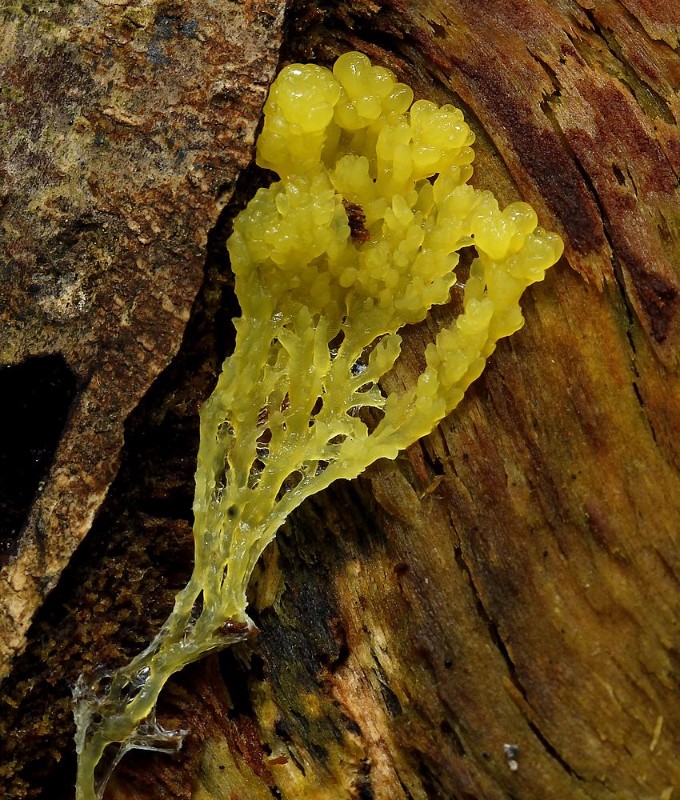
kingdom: Protozoa
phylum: Mycetozoa
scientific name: Mycetozoa
